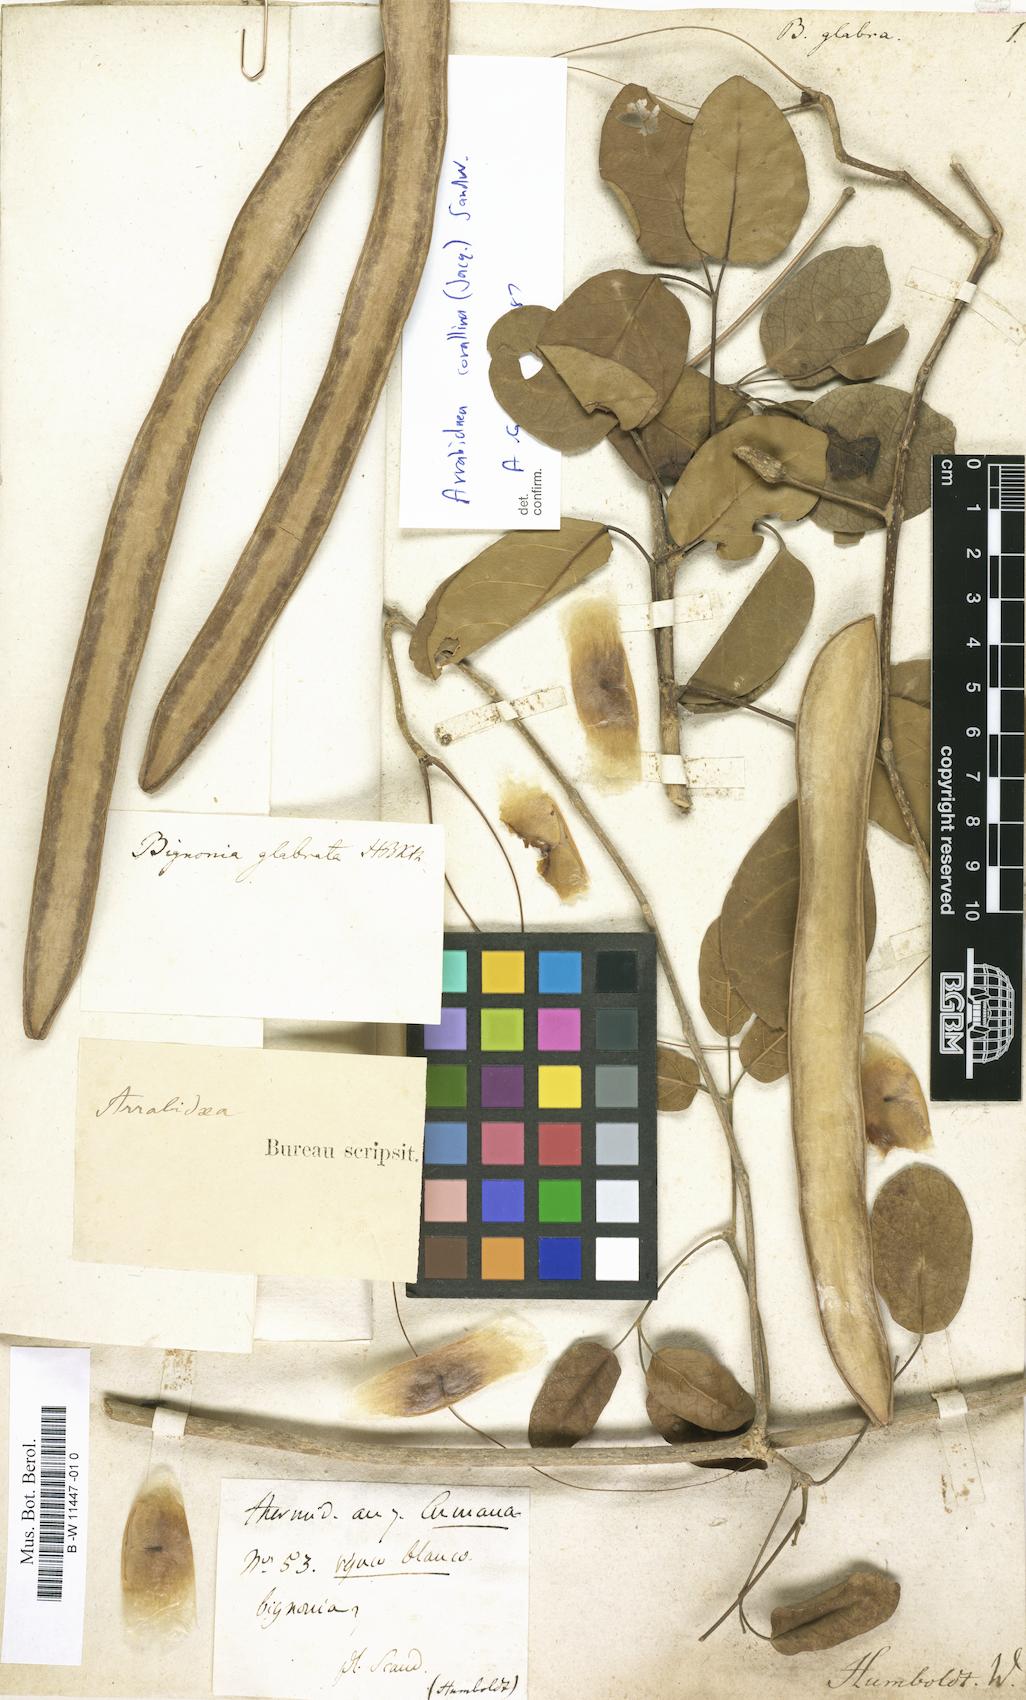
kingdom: Plantae
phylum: Tracheophyta
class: Magnoliopsida
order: Lamiales
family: Bignoniaceae
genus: Bignonia
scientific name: Bignonia glauca
